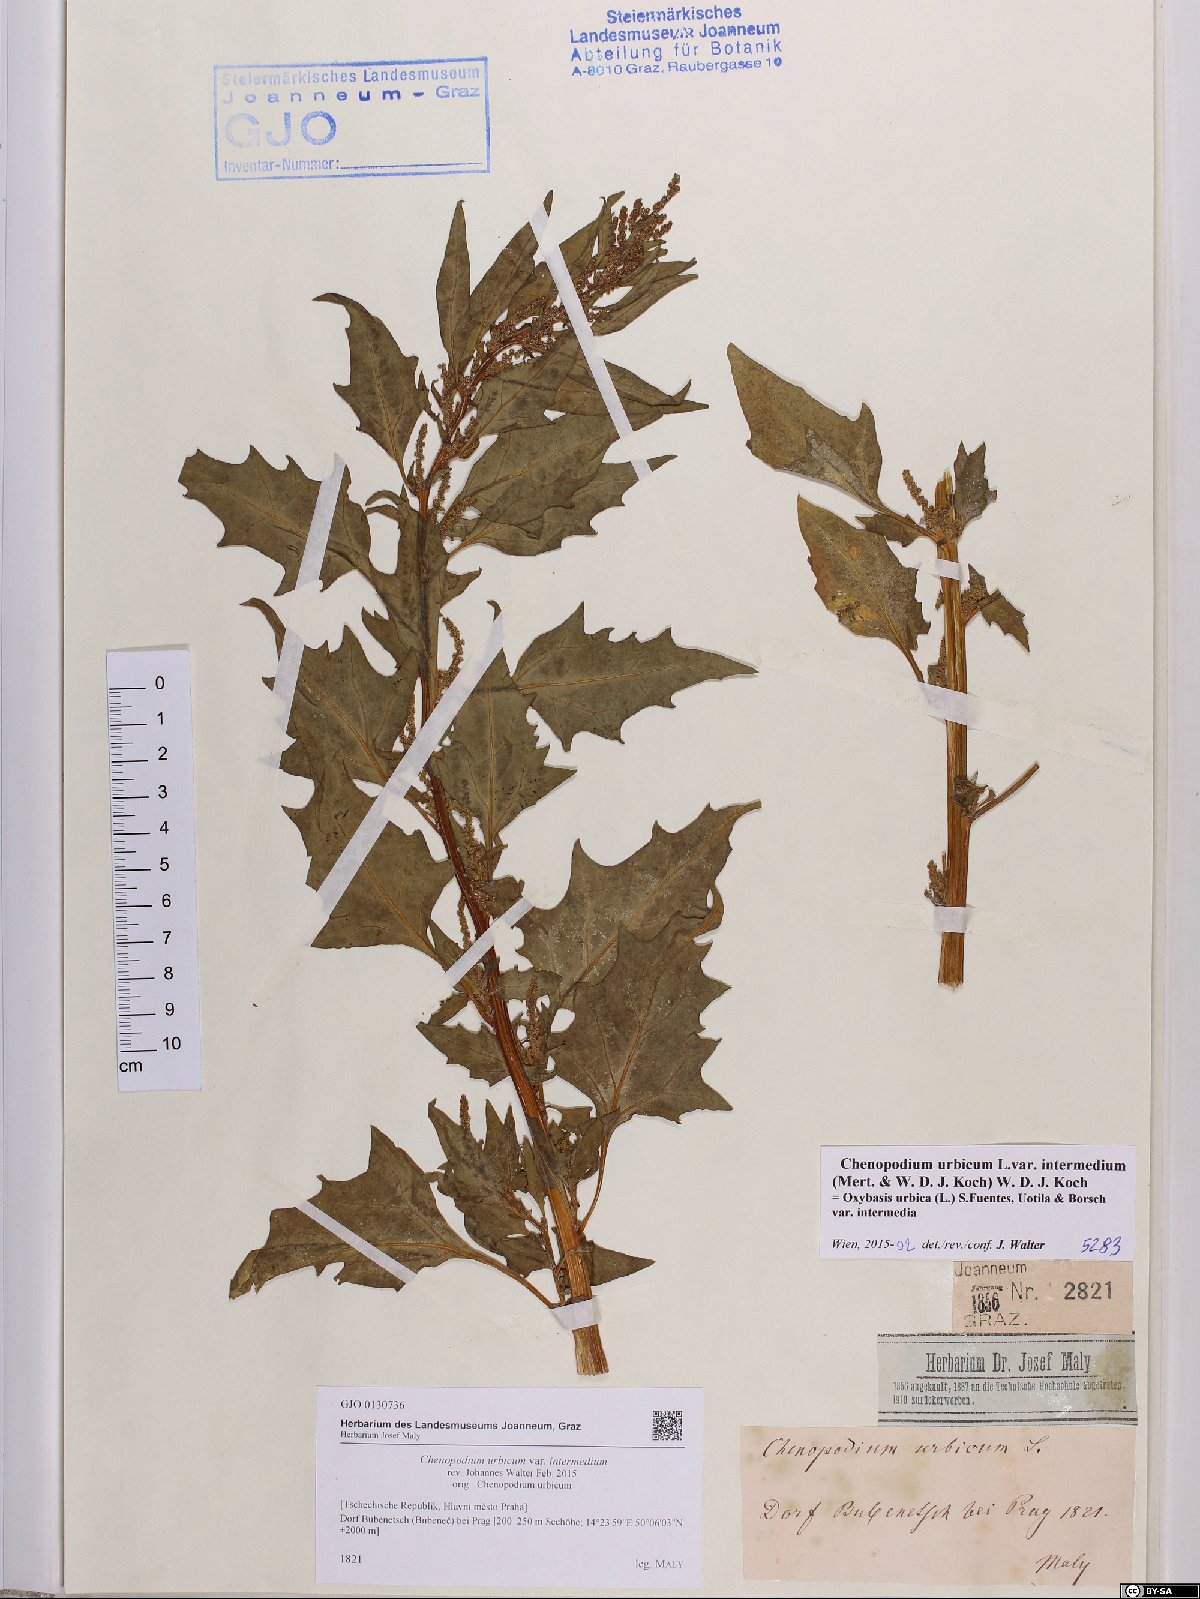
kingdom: Plantae
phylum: Tracheophyta
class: Magnoliopsida
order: Caryophyllales
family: Amaranthaceae
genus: Oxybasis
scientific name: Oxybasis rhombifolia
